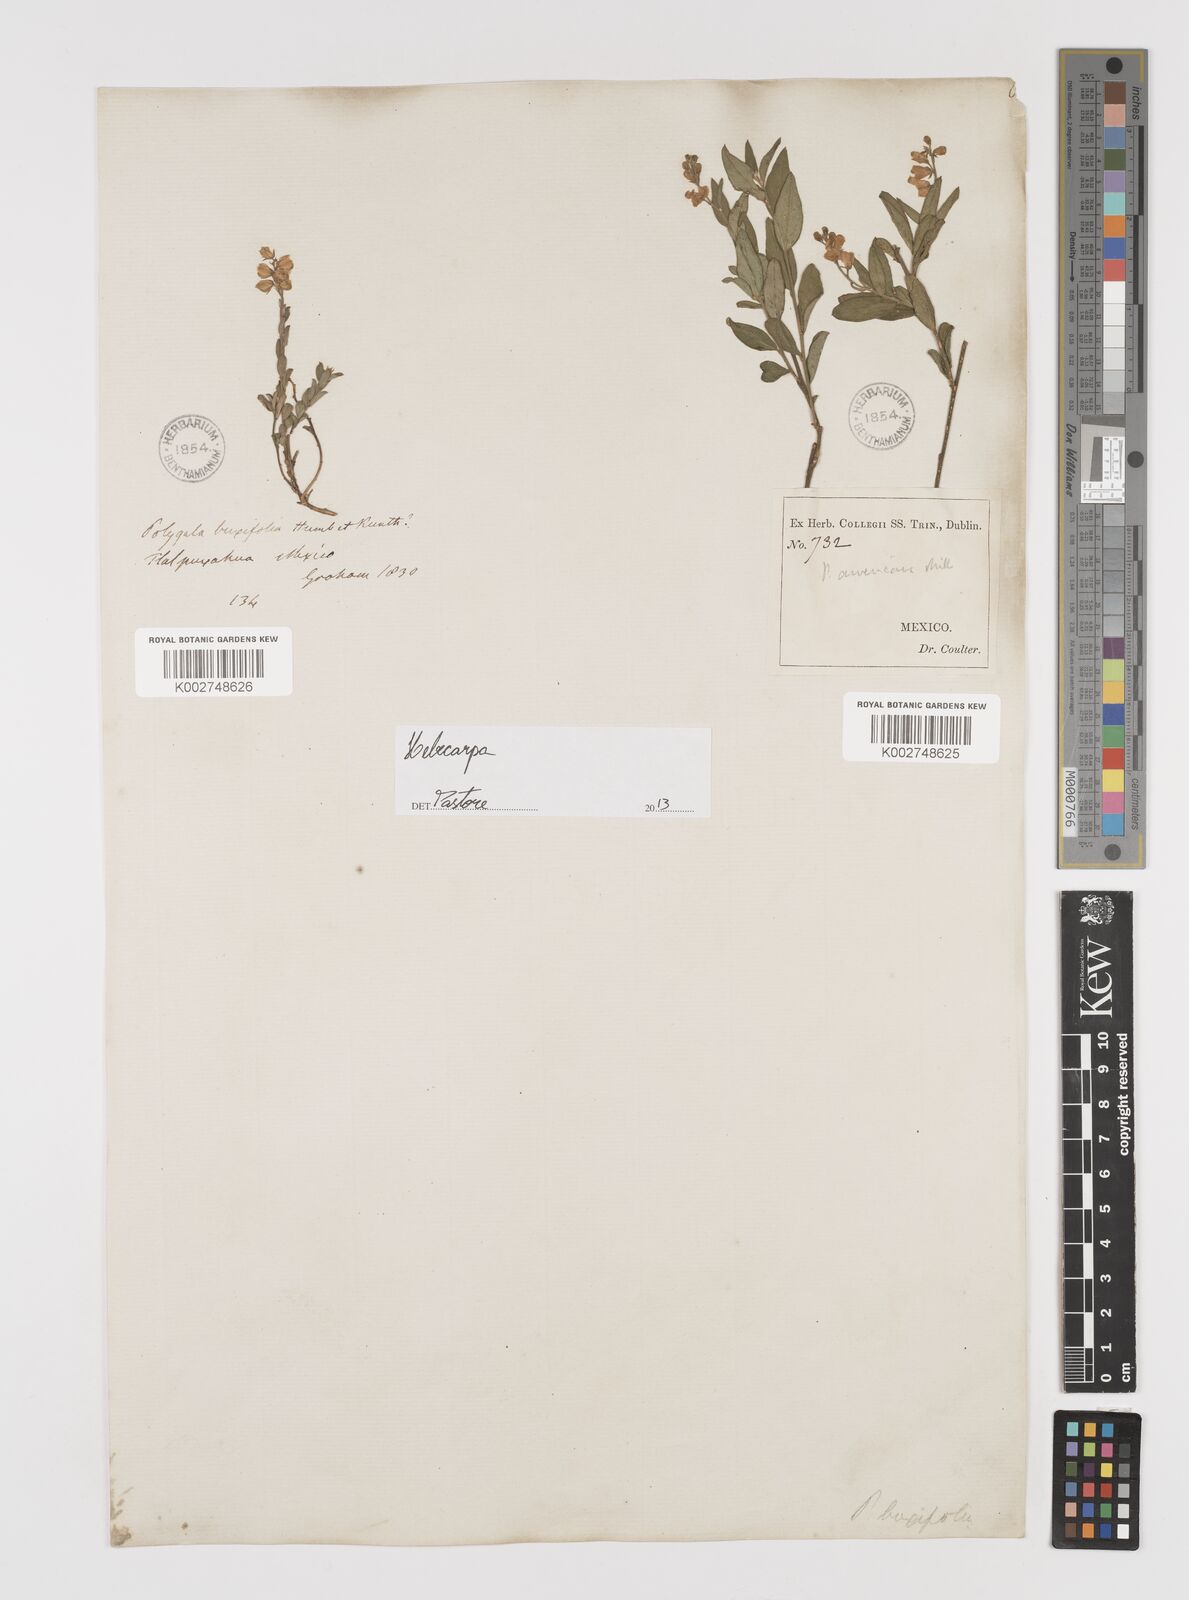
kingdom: Plantae
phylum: Tracheophyta
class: Magnoliopsida
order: Fabales
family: Polygalaceae
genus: Hebecarpa
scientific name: Hebecarpa
